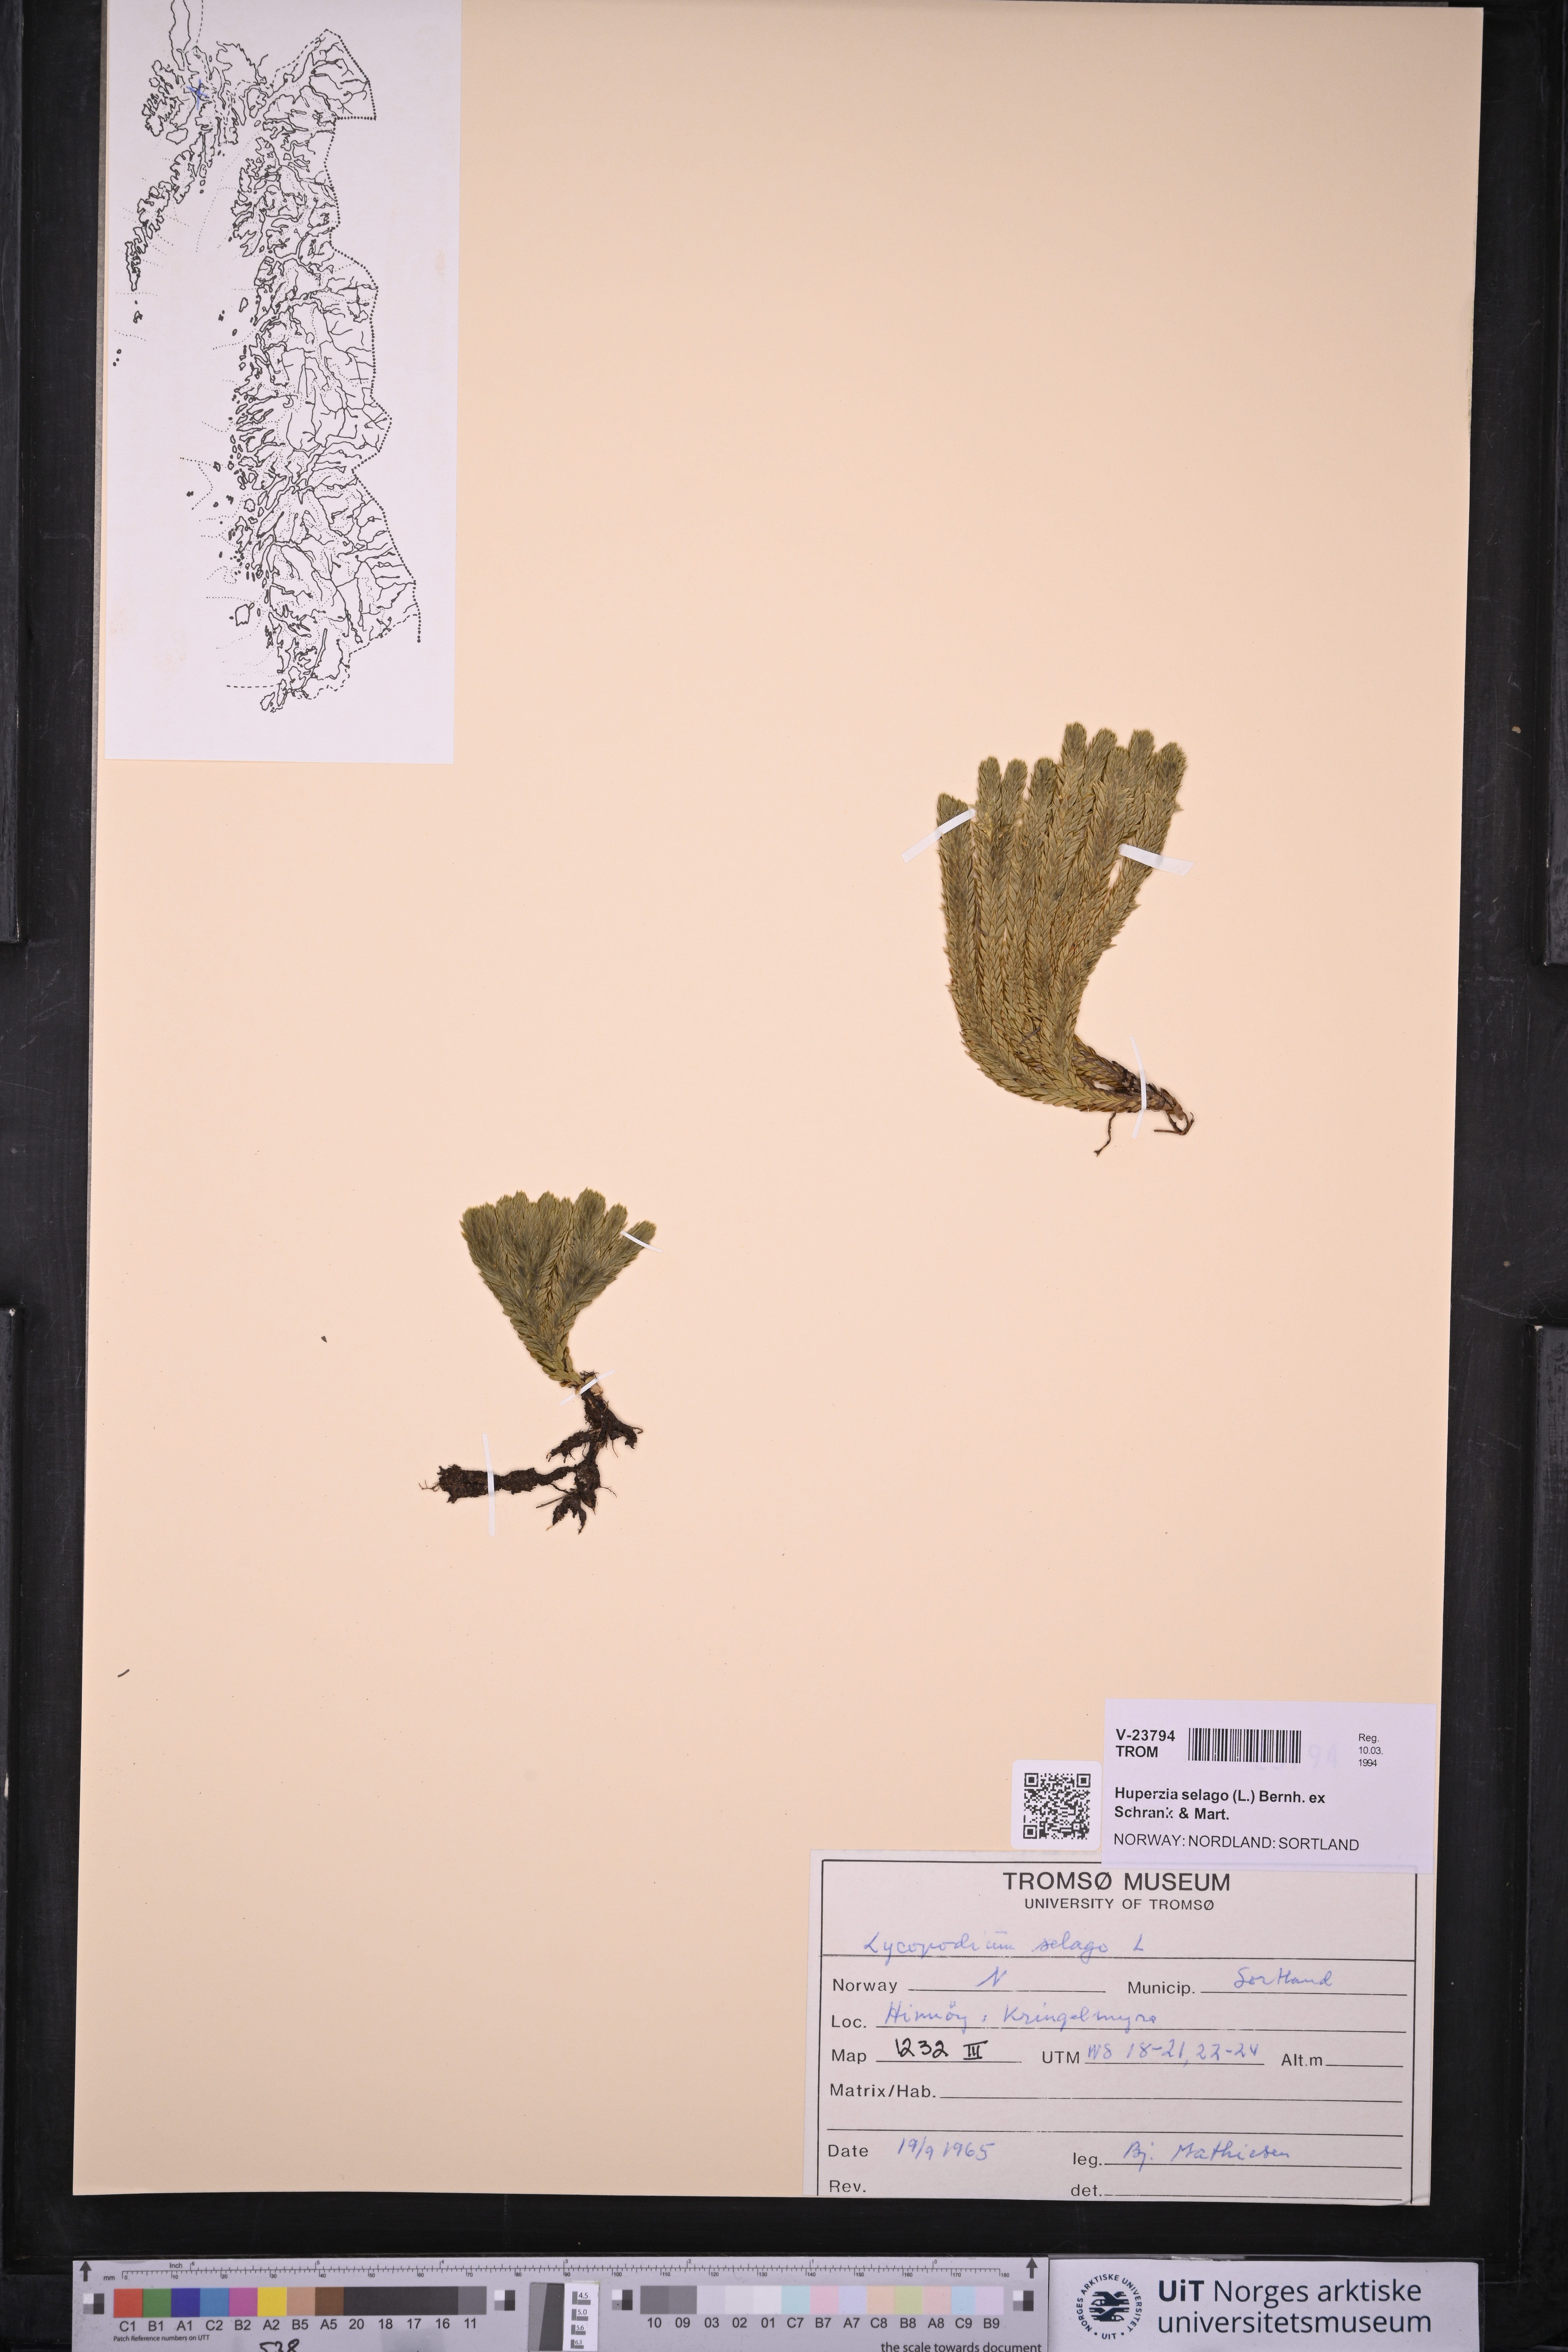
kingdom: Plantae
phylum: Tracheophyta
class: Lycopodiopsida
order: Lycopodiales
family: Lycopodiaceae
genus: Huperzia
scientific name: Huperzia selago
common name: Northern firmoss
